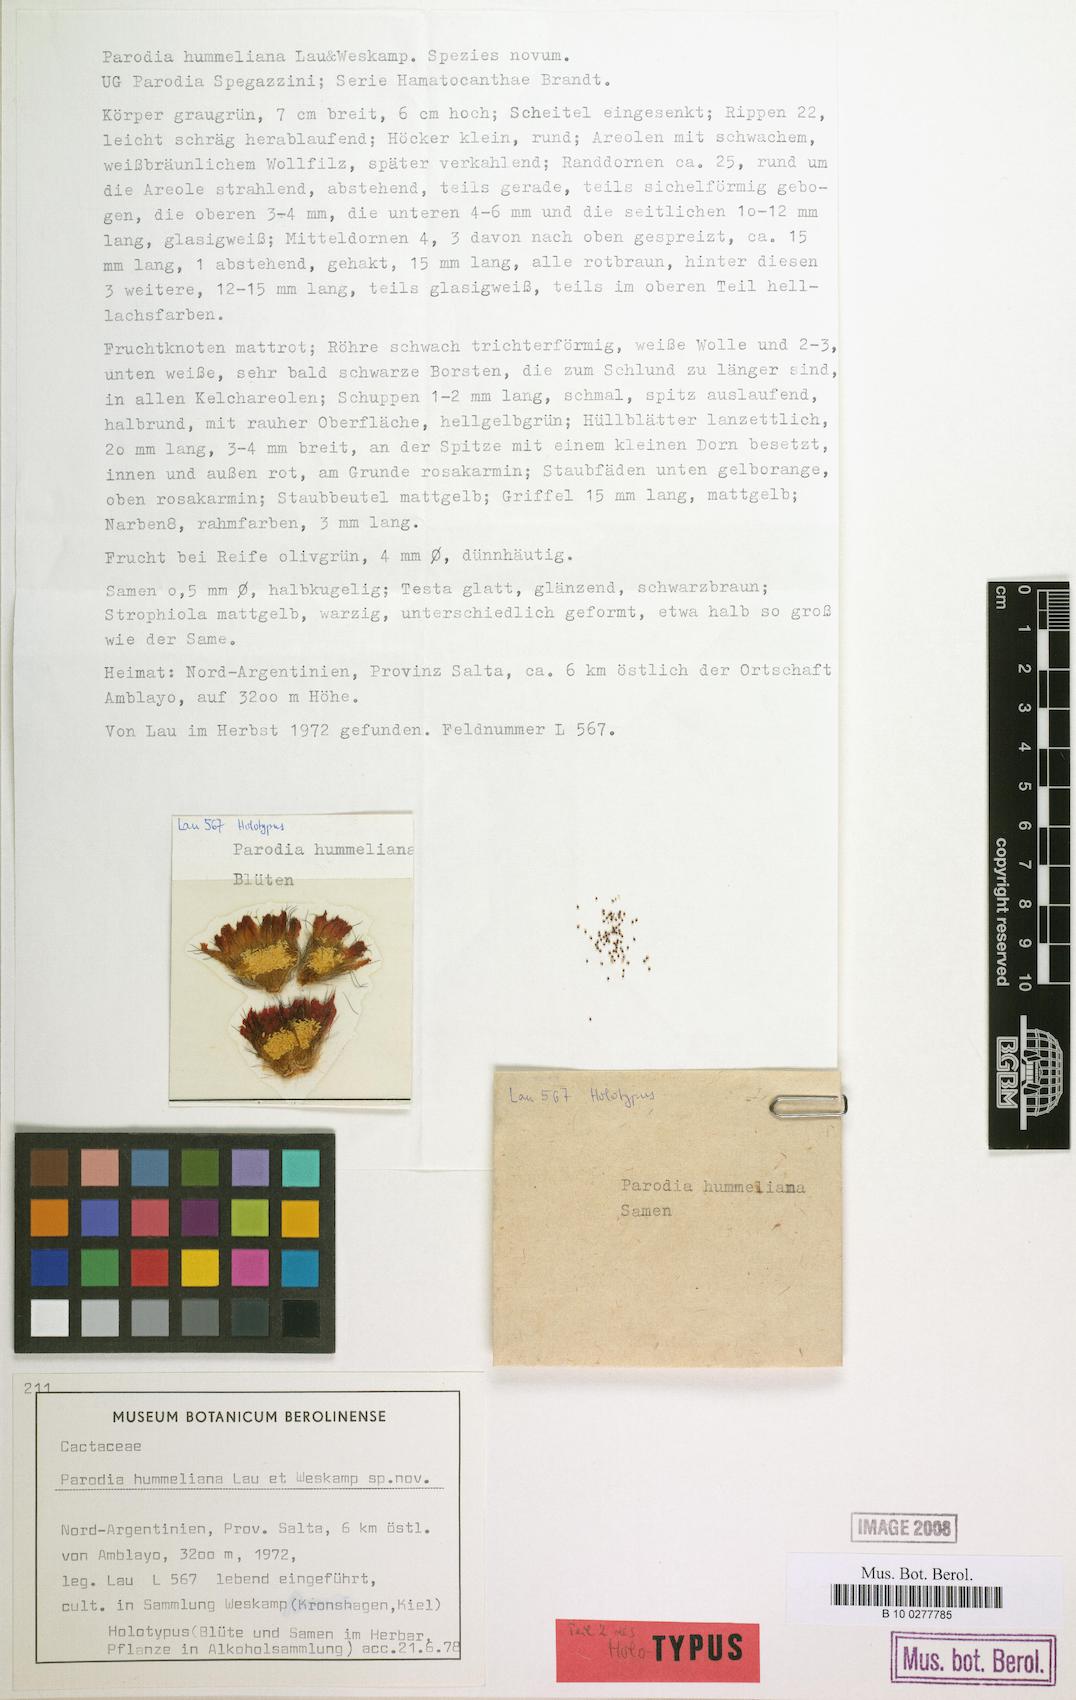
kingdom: Plantae
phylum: Tracheophyta
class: Magnoliopsida
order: Caryophyllales
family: Cactaceae
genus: Parodia
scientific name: Parodia microsperma
